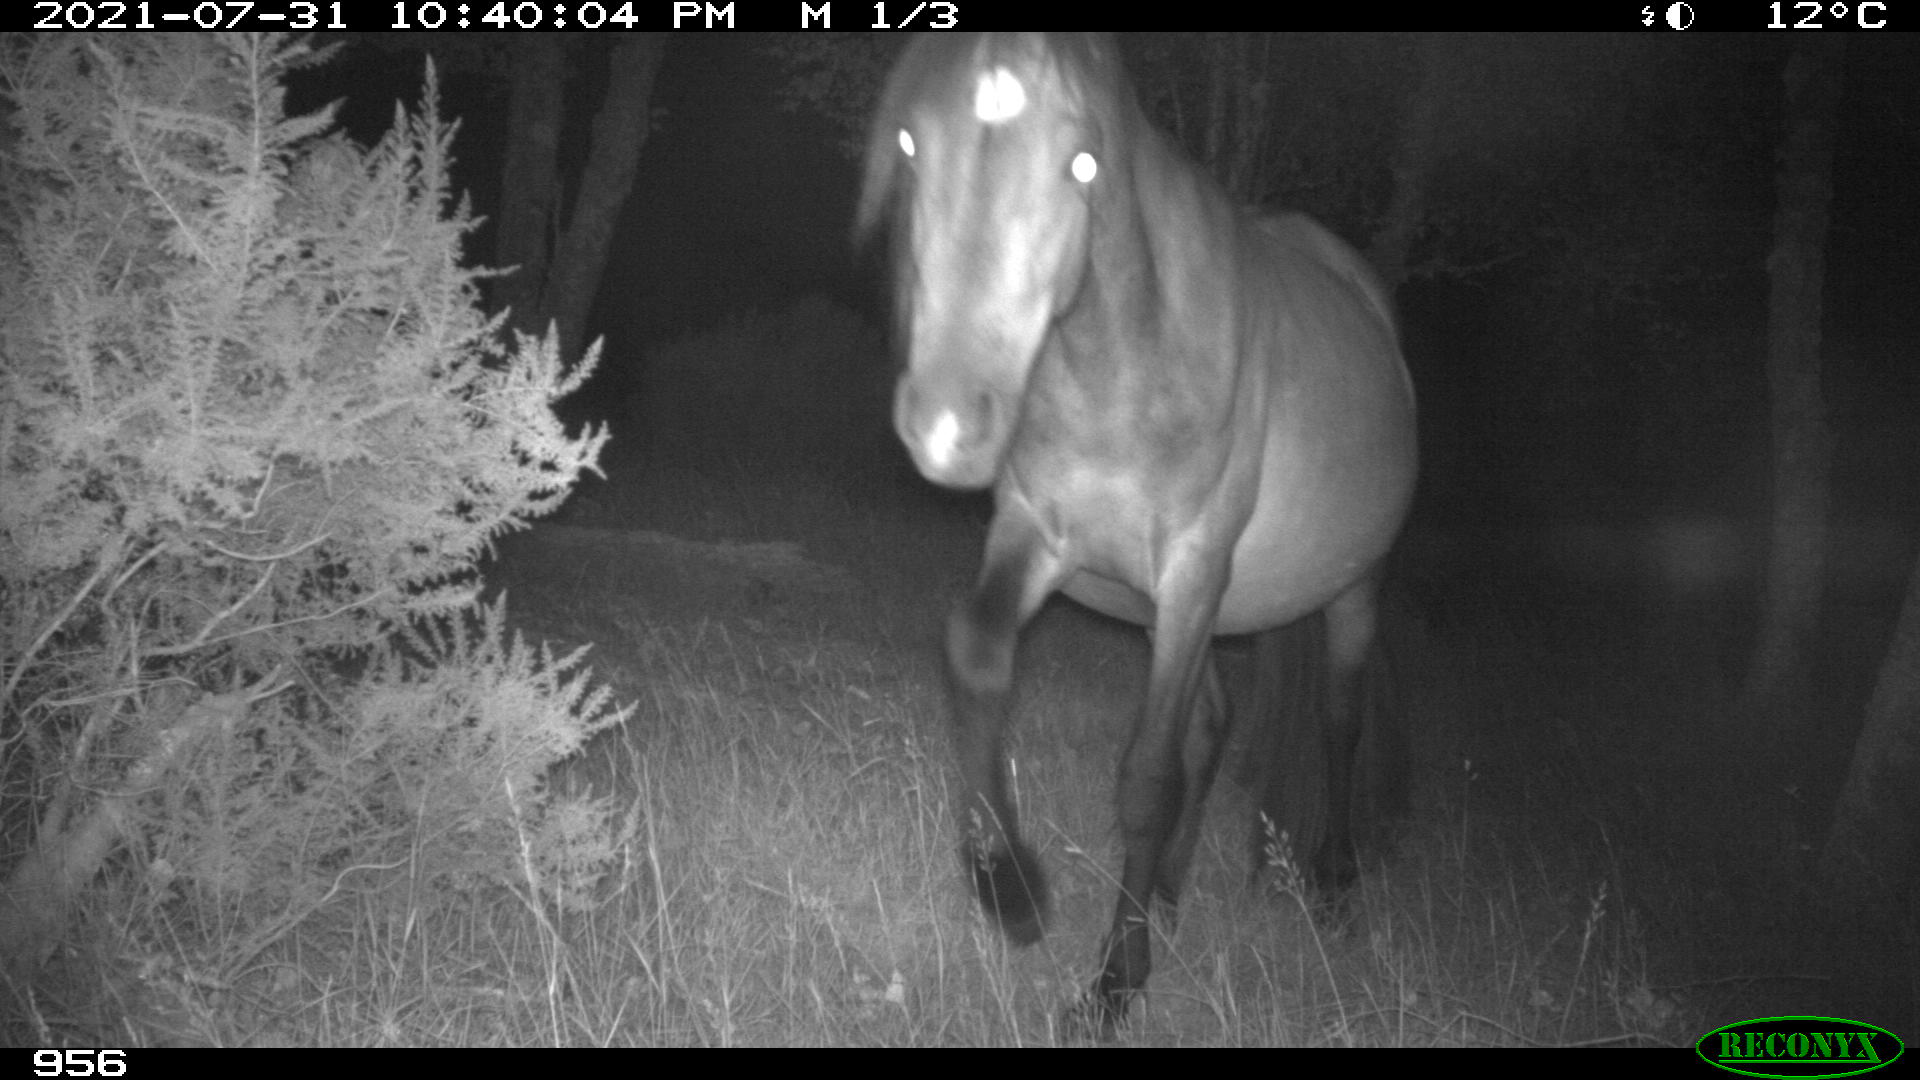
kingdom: Animalia
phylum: Chordata
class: Mammalia
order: Perissodactyla
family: Equidae
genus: Equus
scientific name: Equus caballus
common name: Horse
